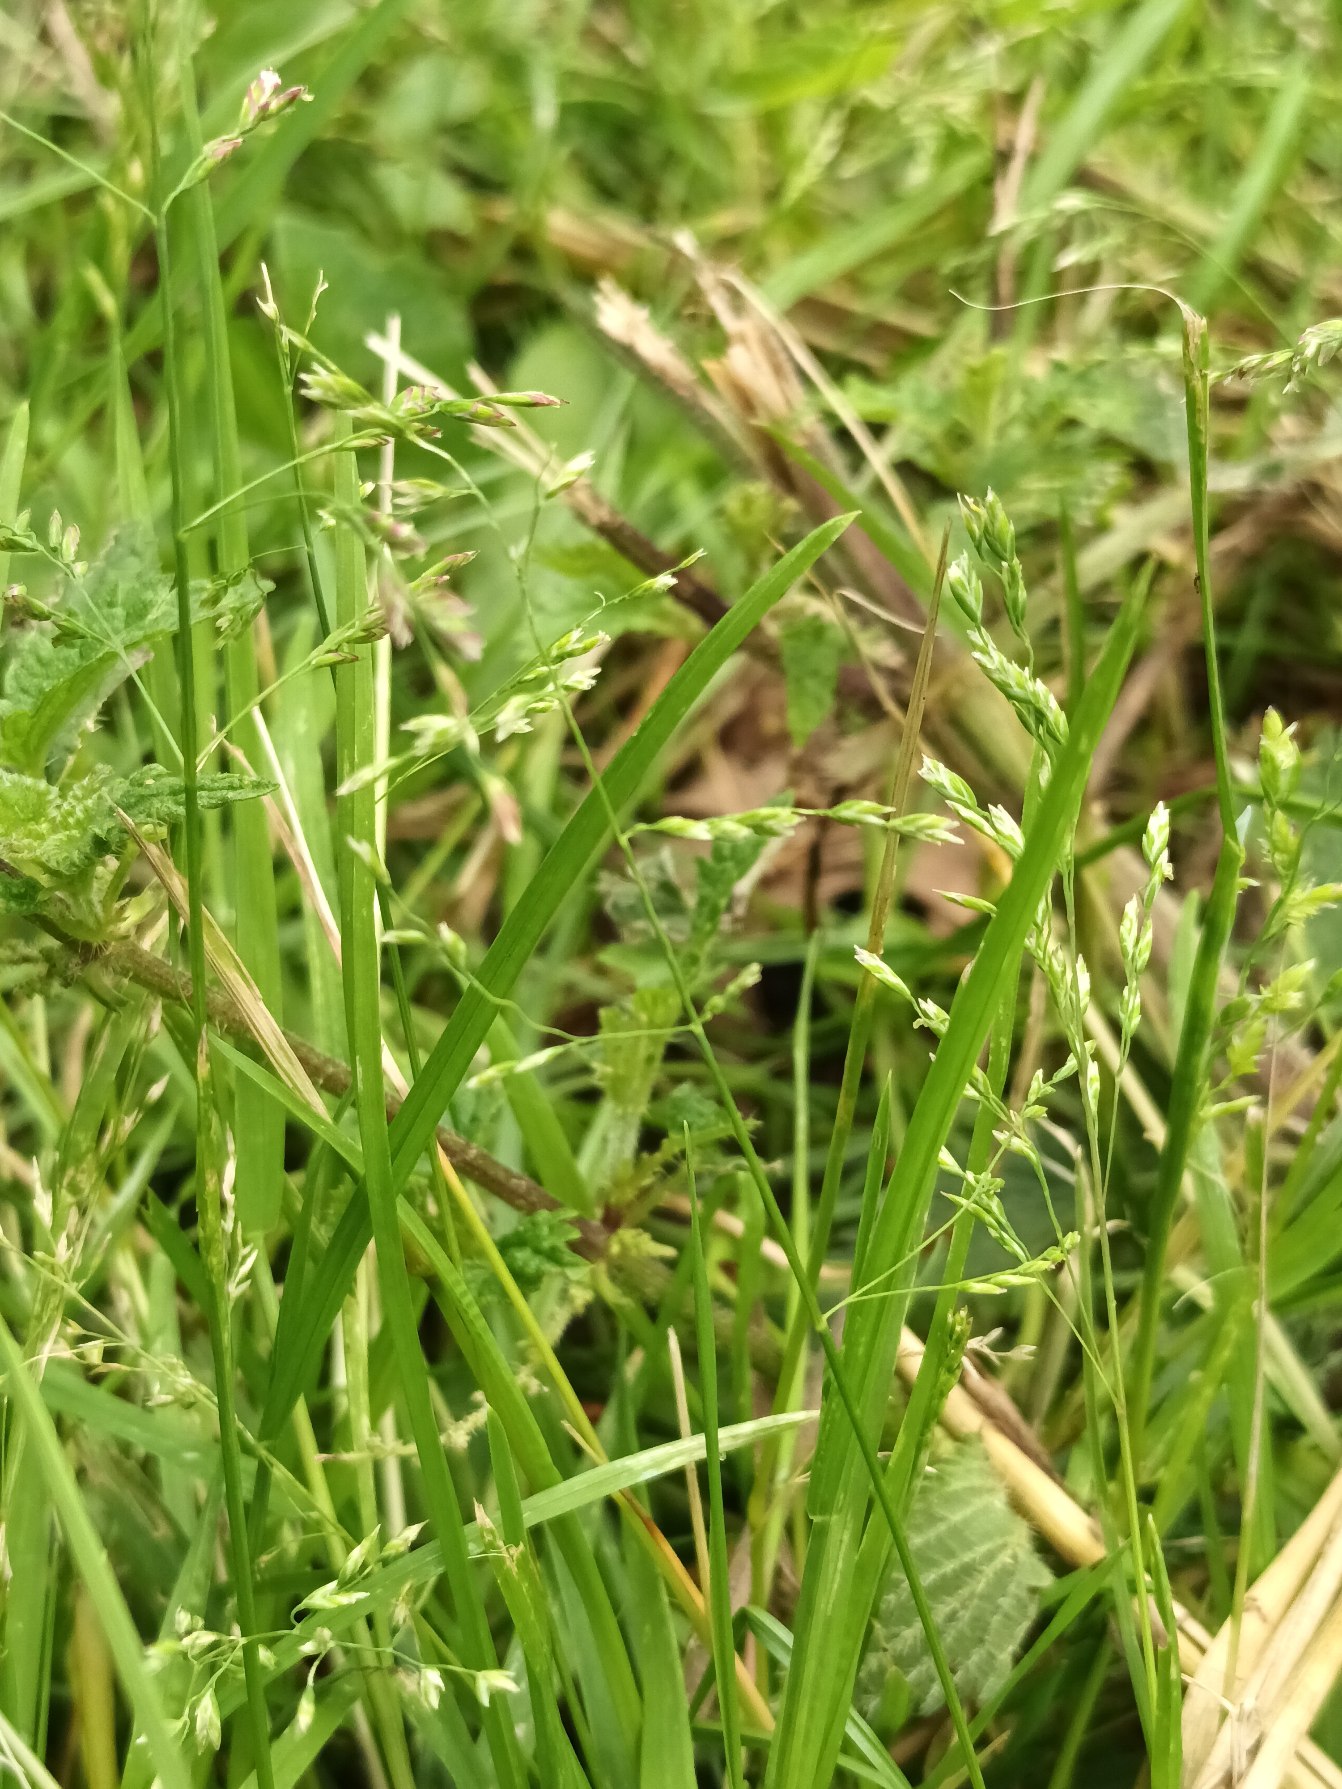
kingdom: Plantae
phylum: Tracheophyta
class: Liliopsida
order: Poales
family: Poaceae
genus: Poa
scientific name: Poa annua
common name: Enårig rapgræs
